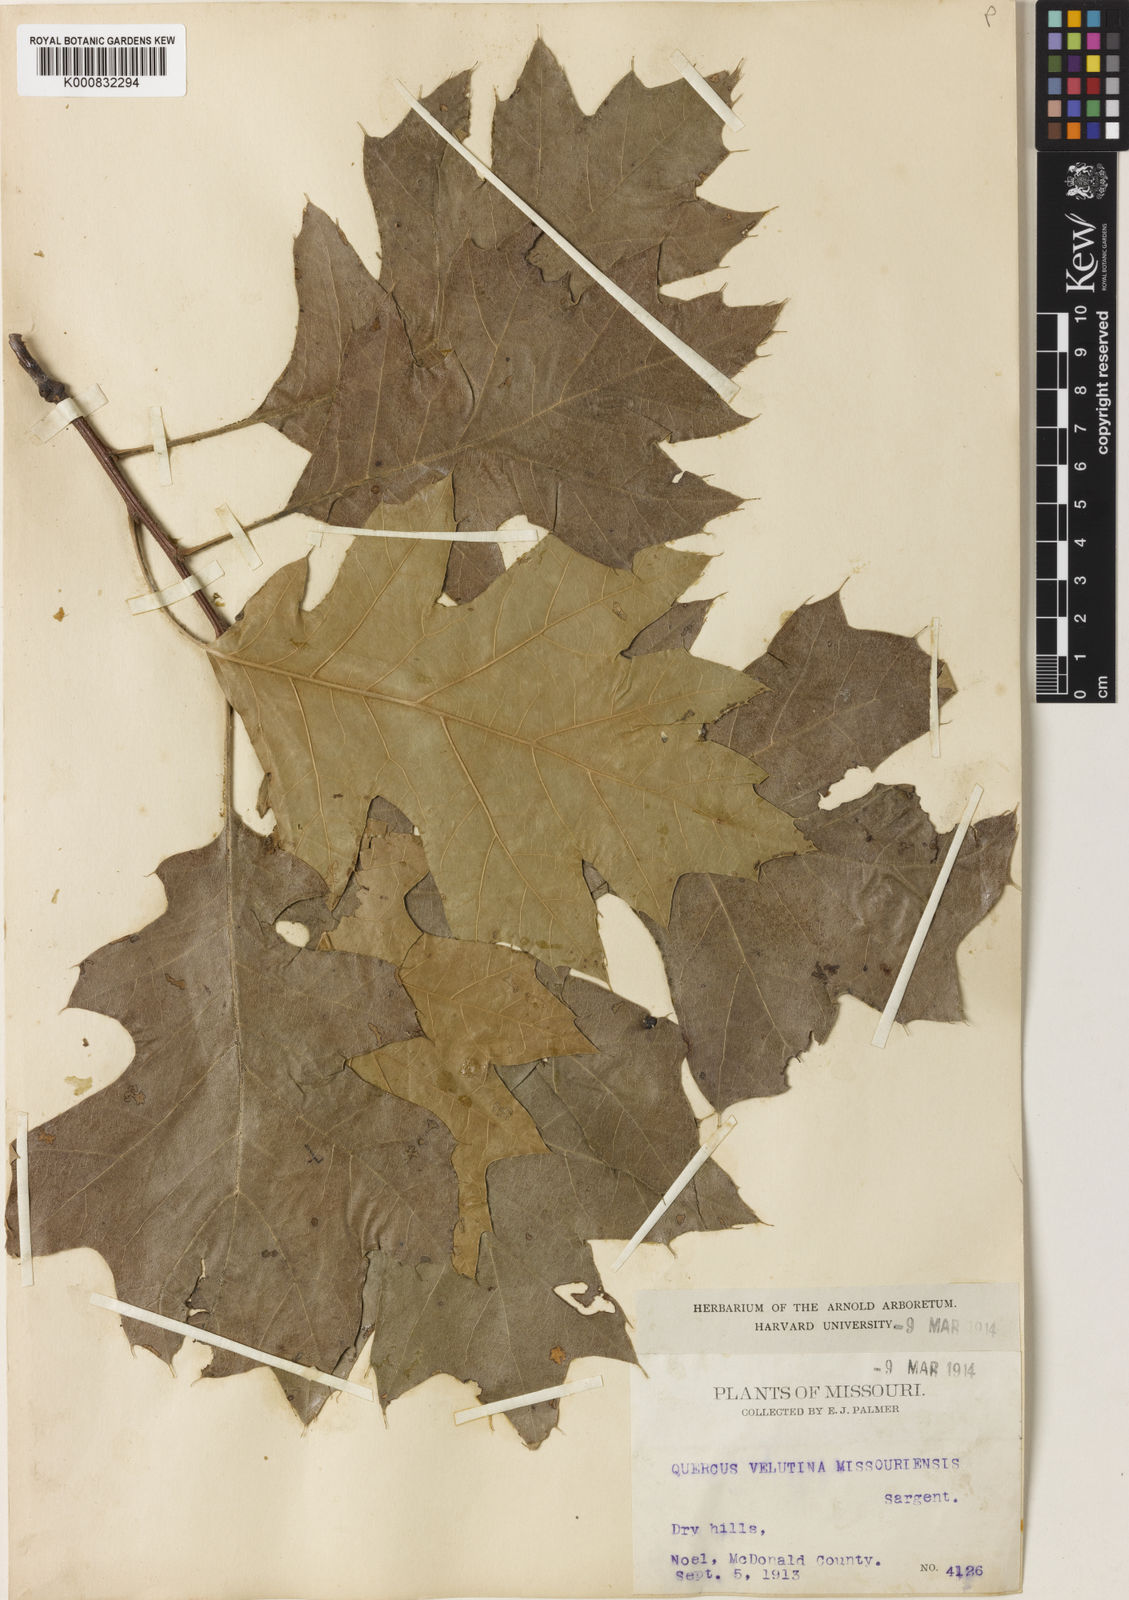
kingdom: Plantae
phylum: Tracheophyta
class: Magnoliopsida
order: Fagales
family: Fagaceae
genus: Quercus
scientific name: Quercus velutina
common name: Black oak
